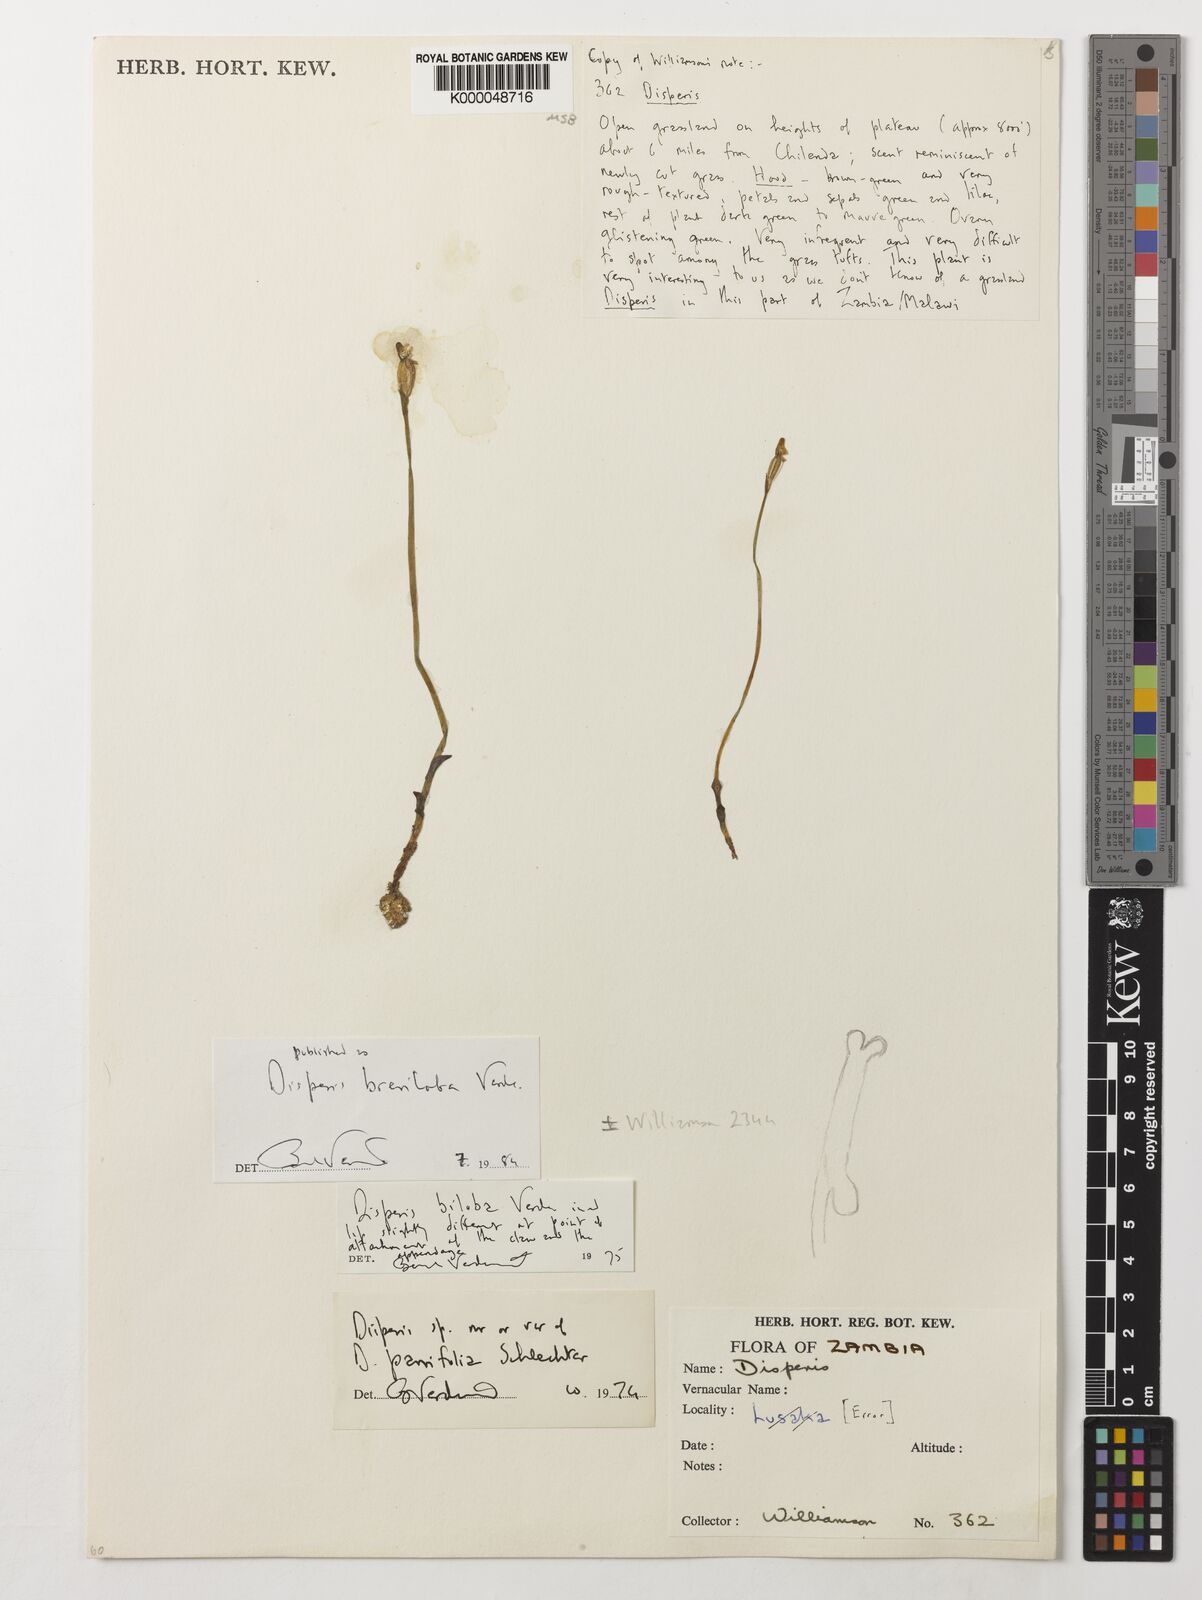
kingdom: Plantae
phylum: Tracheophyta
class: Liliopsida
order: Asparagales
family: Orchidaceae
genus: Disperis
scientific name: Disperis breviloba
